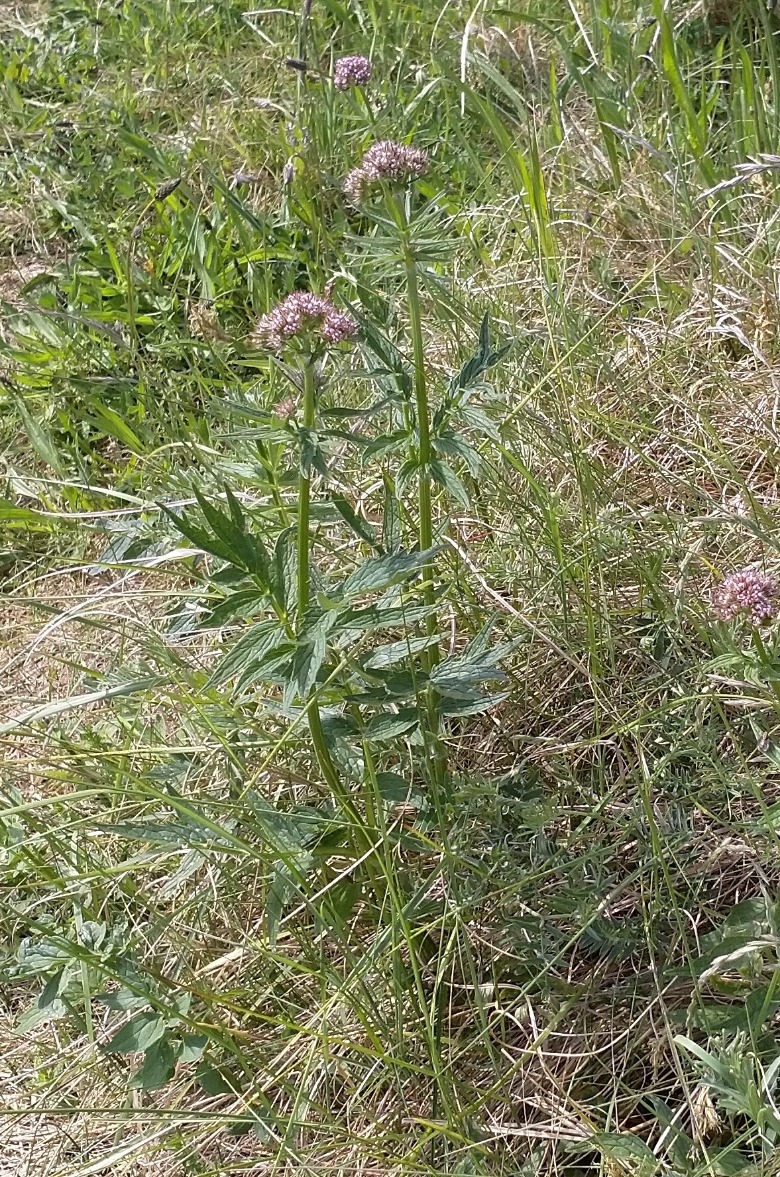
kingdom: Plantae
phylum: Tracheophyta
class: Magnoliopsida
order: Dipsacales
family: Caprifoliaceae
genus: Valeriana
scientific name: Valeriana sambucifolia
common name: Hyldebladet baldrian
